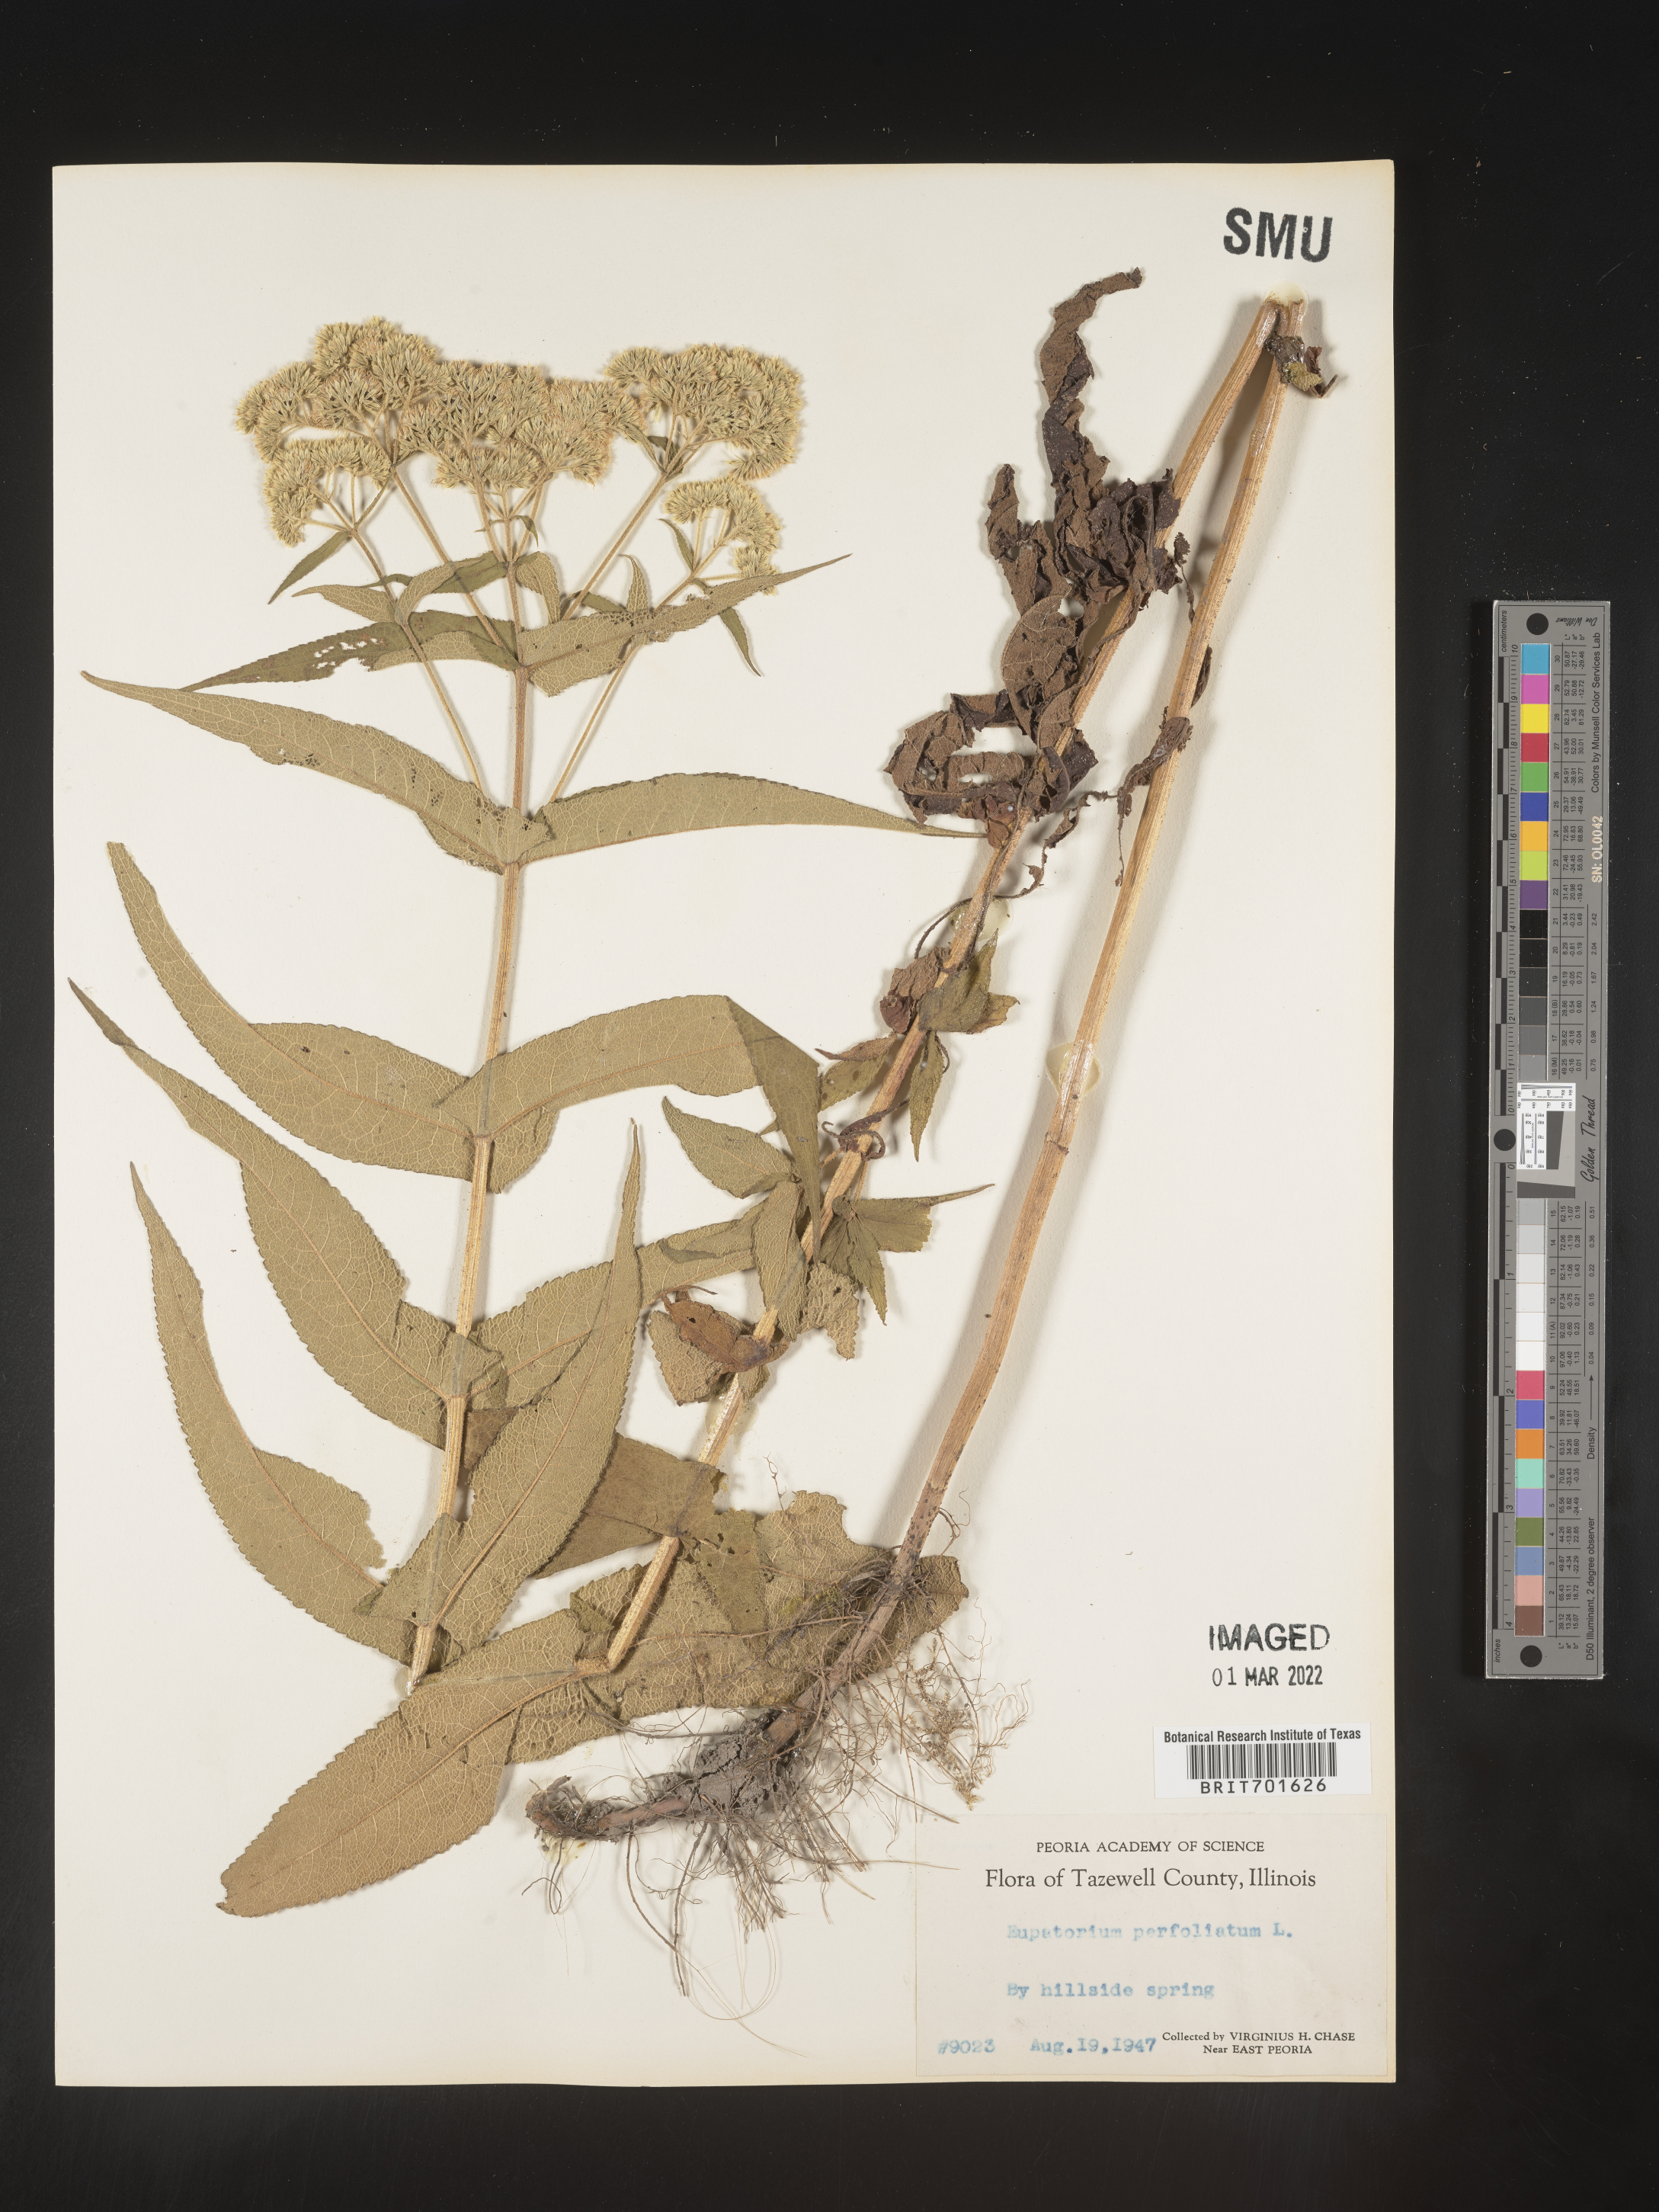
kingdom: Plantae
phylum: Tracheophyta
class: Magnoliopsida
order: Asterales
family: Asteraceae
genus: Eupatorium
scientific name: Eupatorium perfoliatum
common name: Boneset
